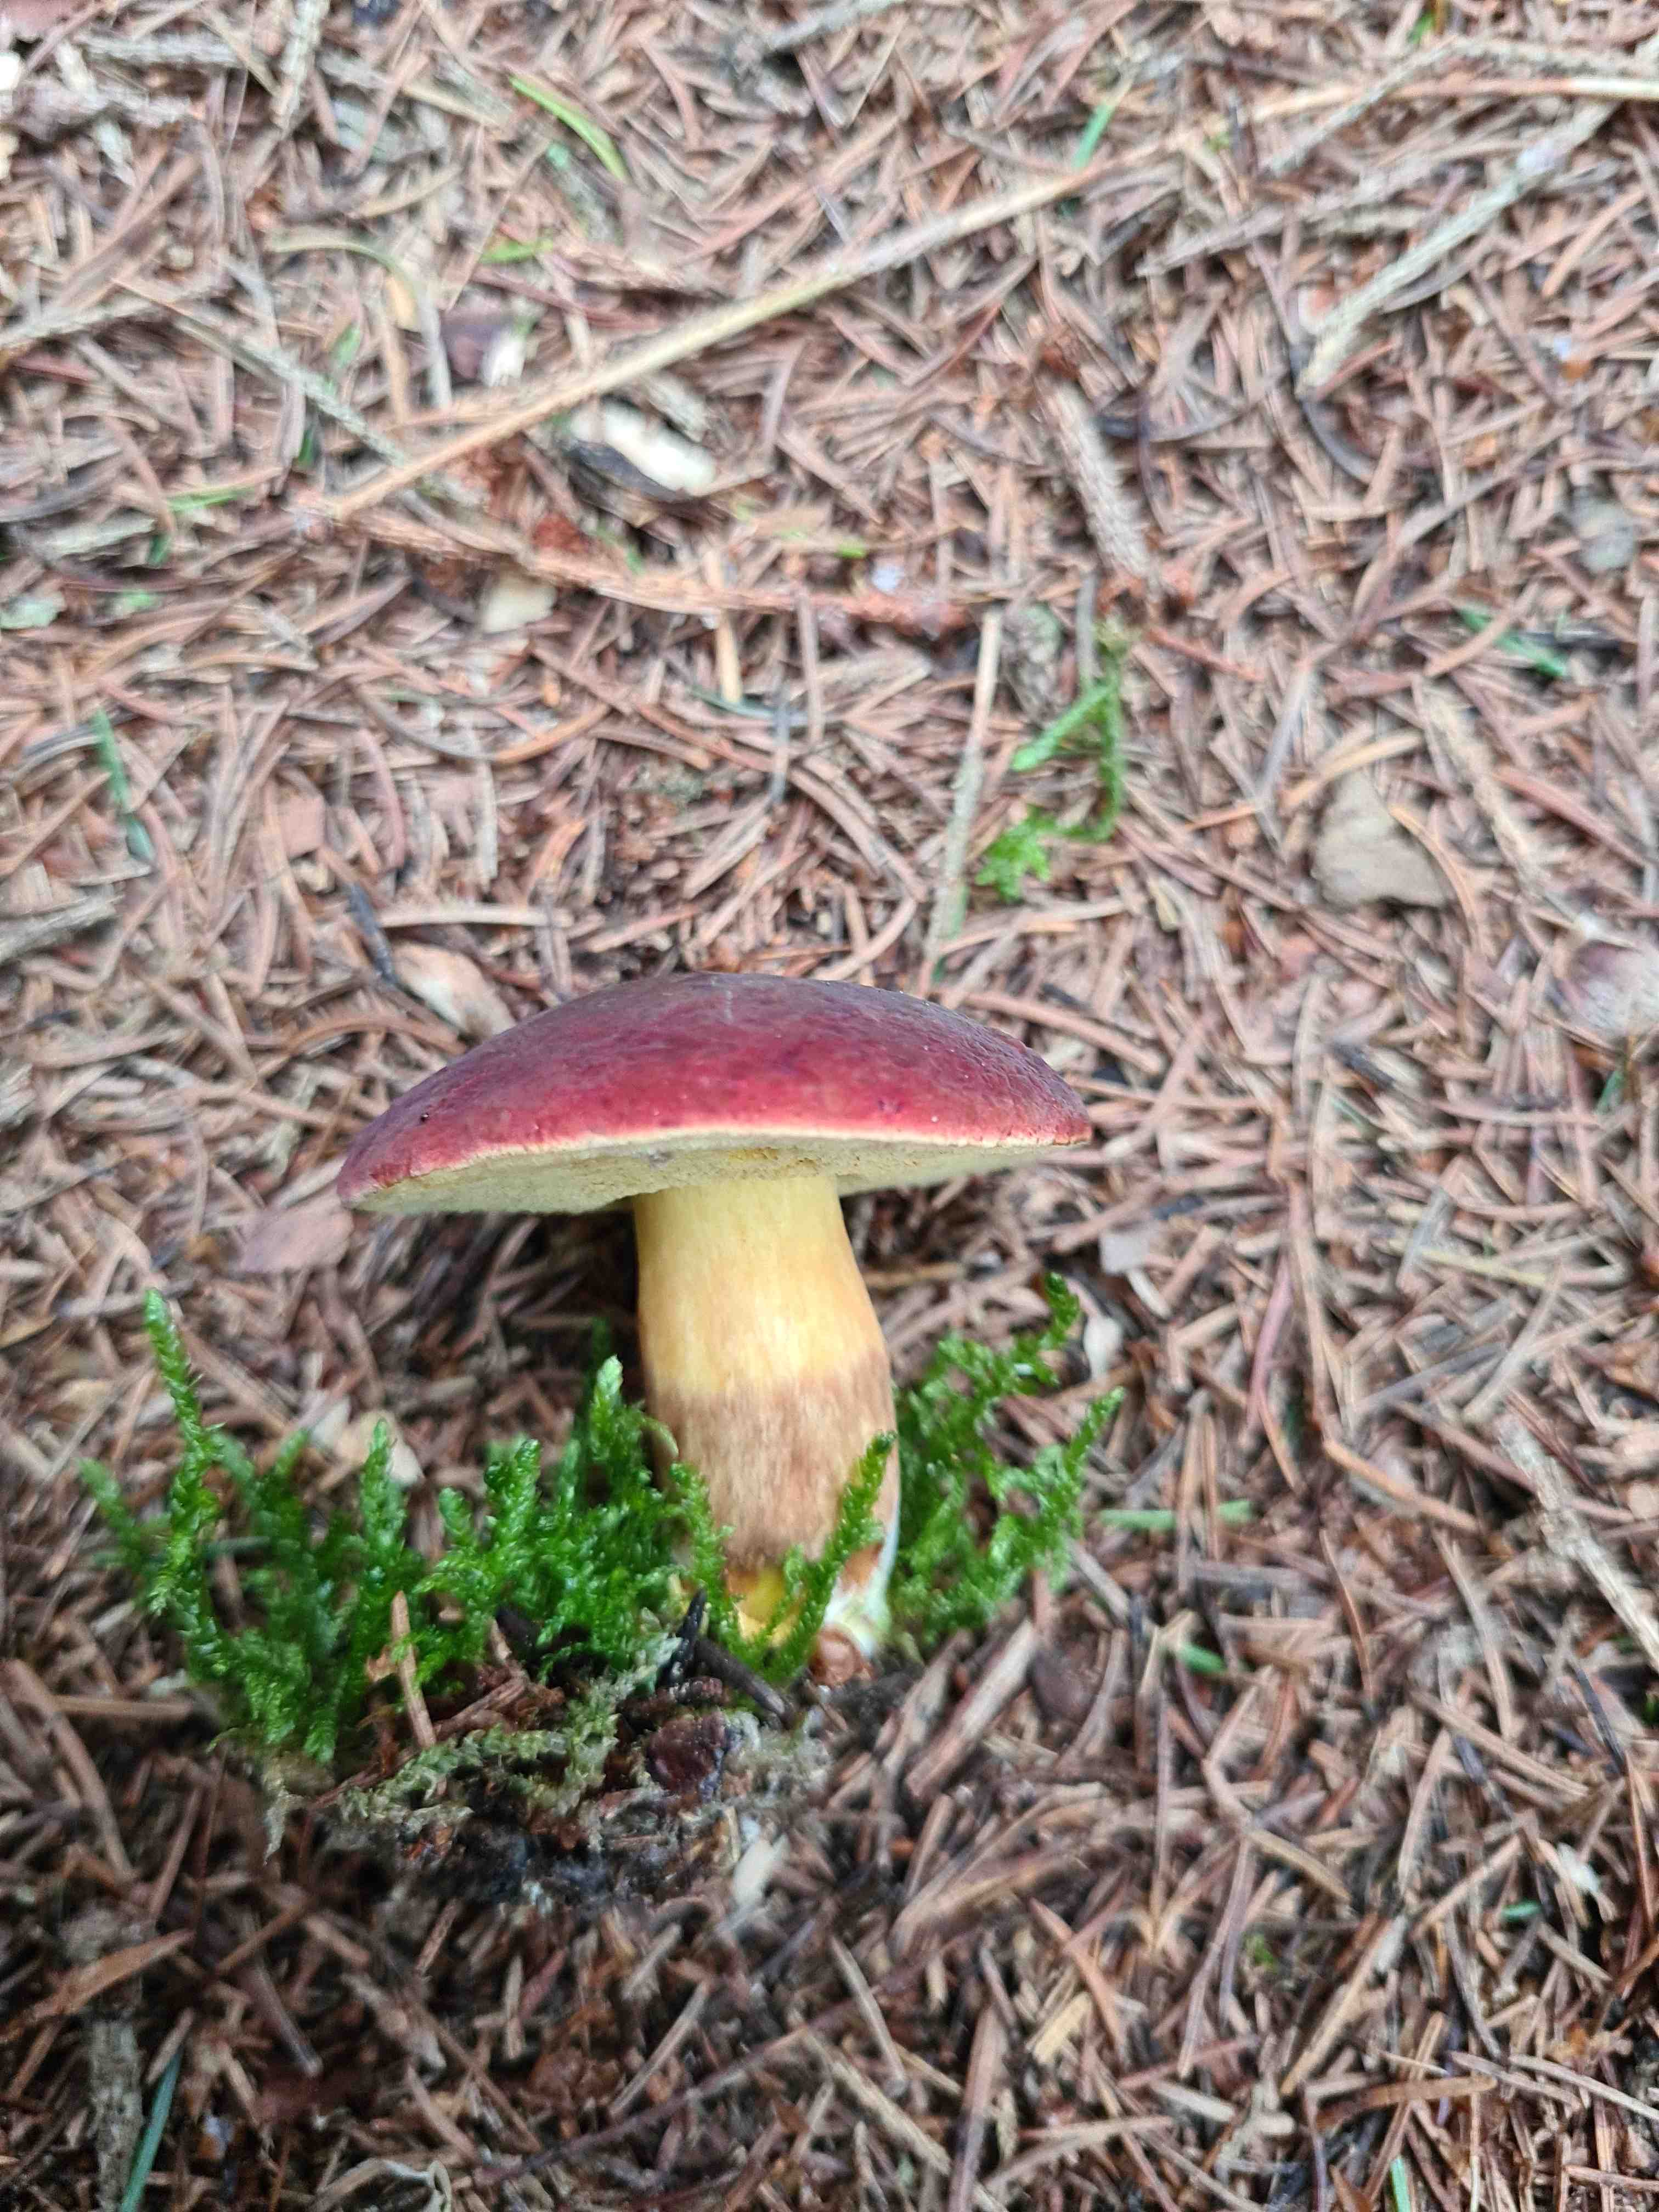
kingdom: Fungi
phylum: Basidiomycota
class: Agaricomycetes
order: Boletales
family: Boletaceae
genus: Xerocomellus
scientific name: Xerocomellus
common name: dværgrørhat
